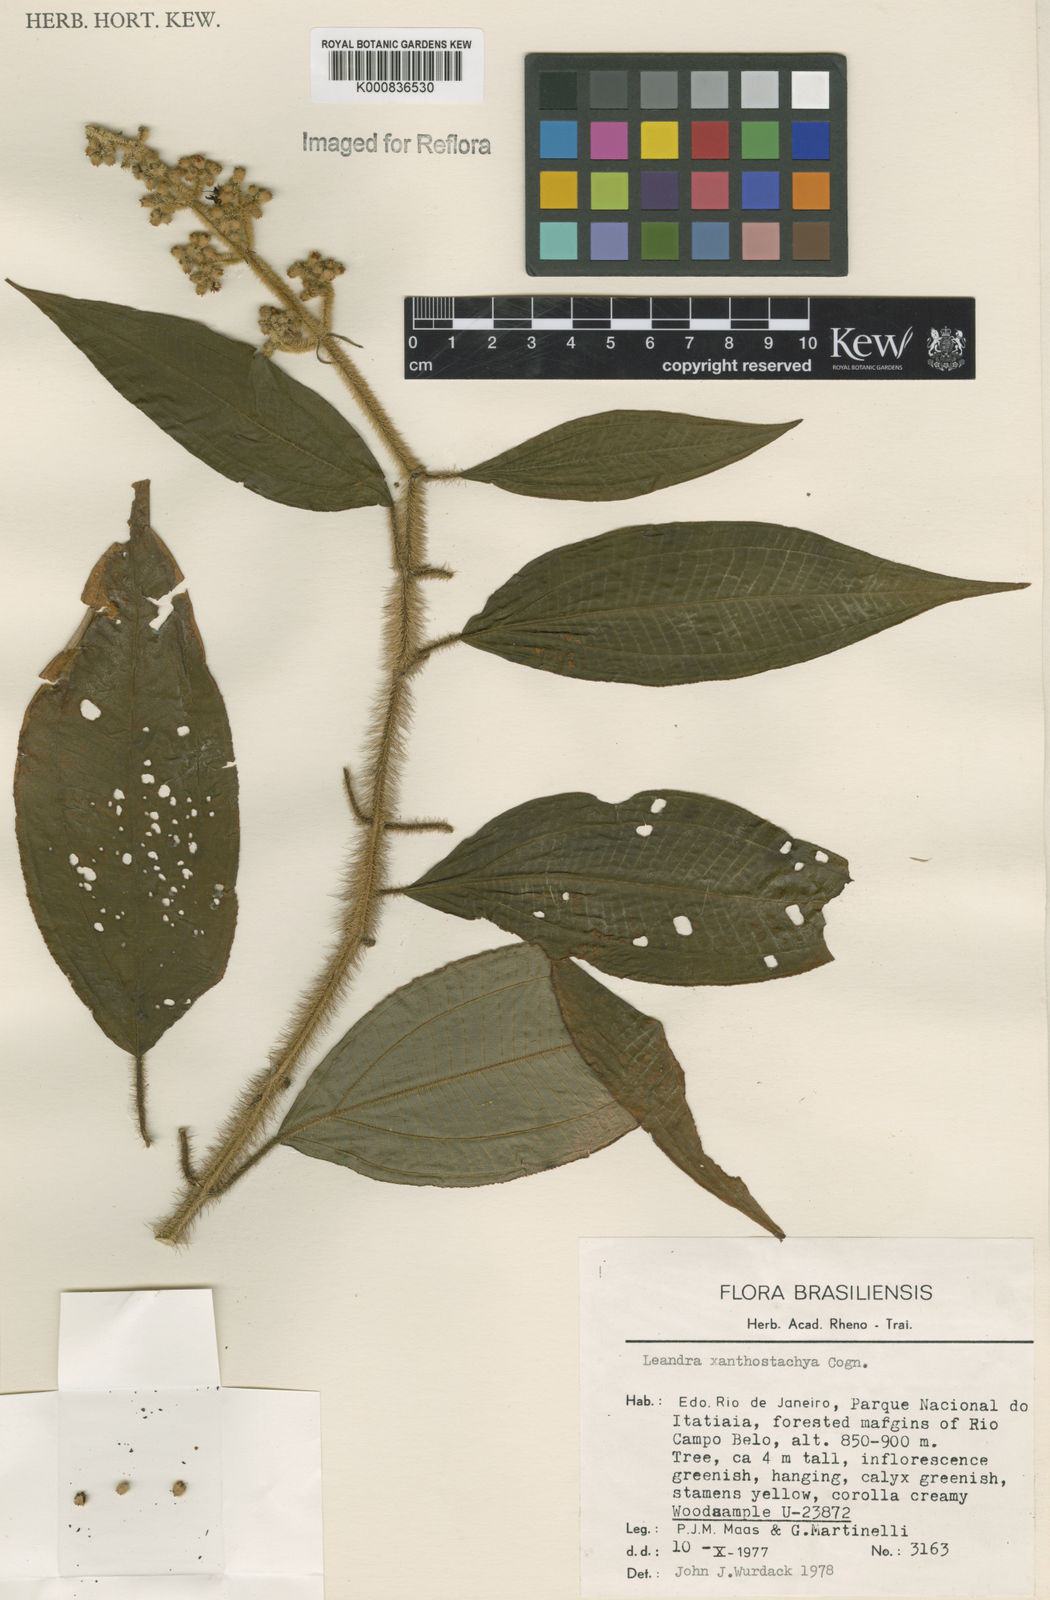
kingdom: Plantae
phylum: Tracheophyta
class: Magnoliopsida
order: Myrtales
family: Melastomataceae
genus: Miconia
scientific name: Miconia xanthostachya
